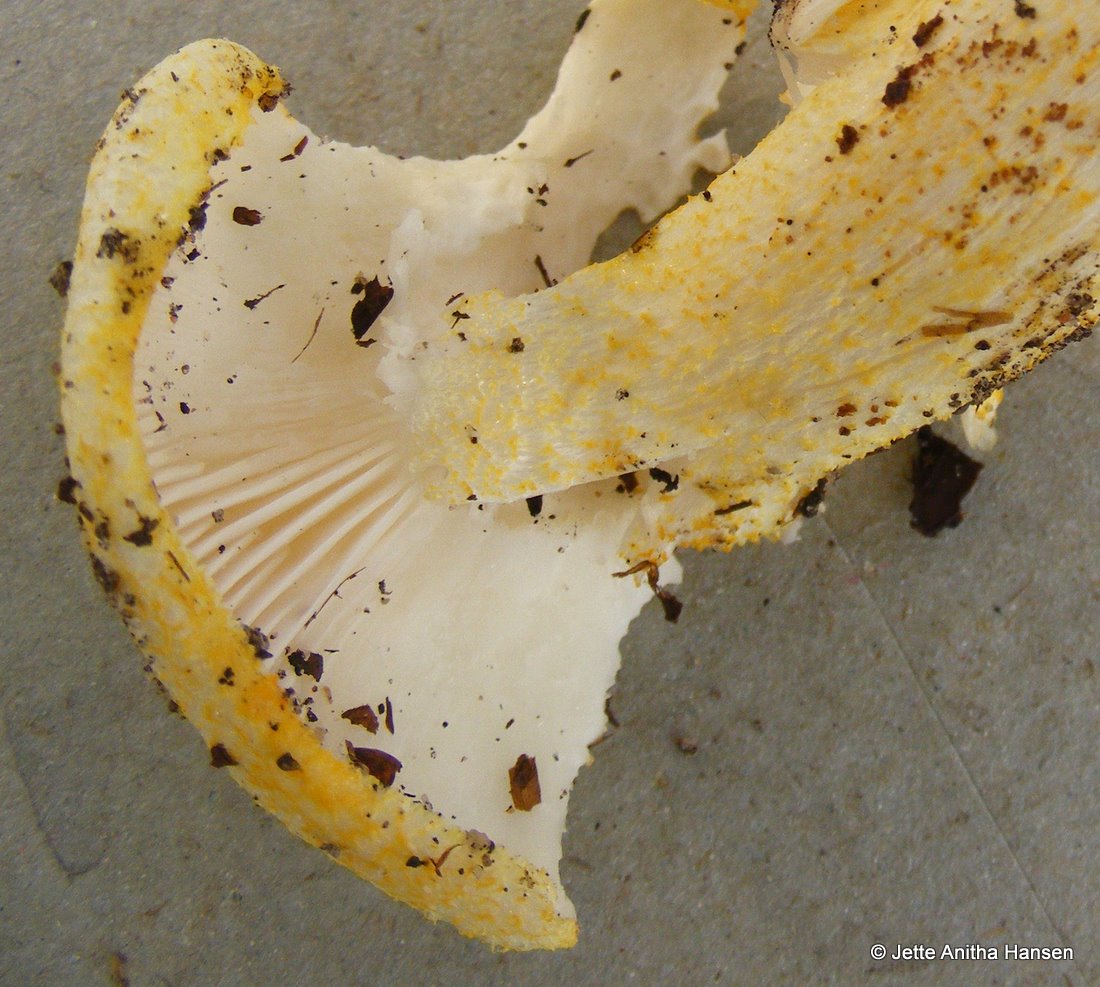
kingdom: Fungi
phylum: Basidiomycota
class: Agaricomycetes
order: Agaricales
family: Hygrophoraceae
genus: Hygrophorus
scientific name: Hygrophorus chrysodon
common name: gulfnugget sneglehat
